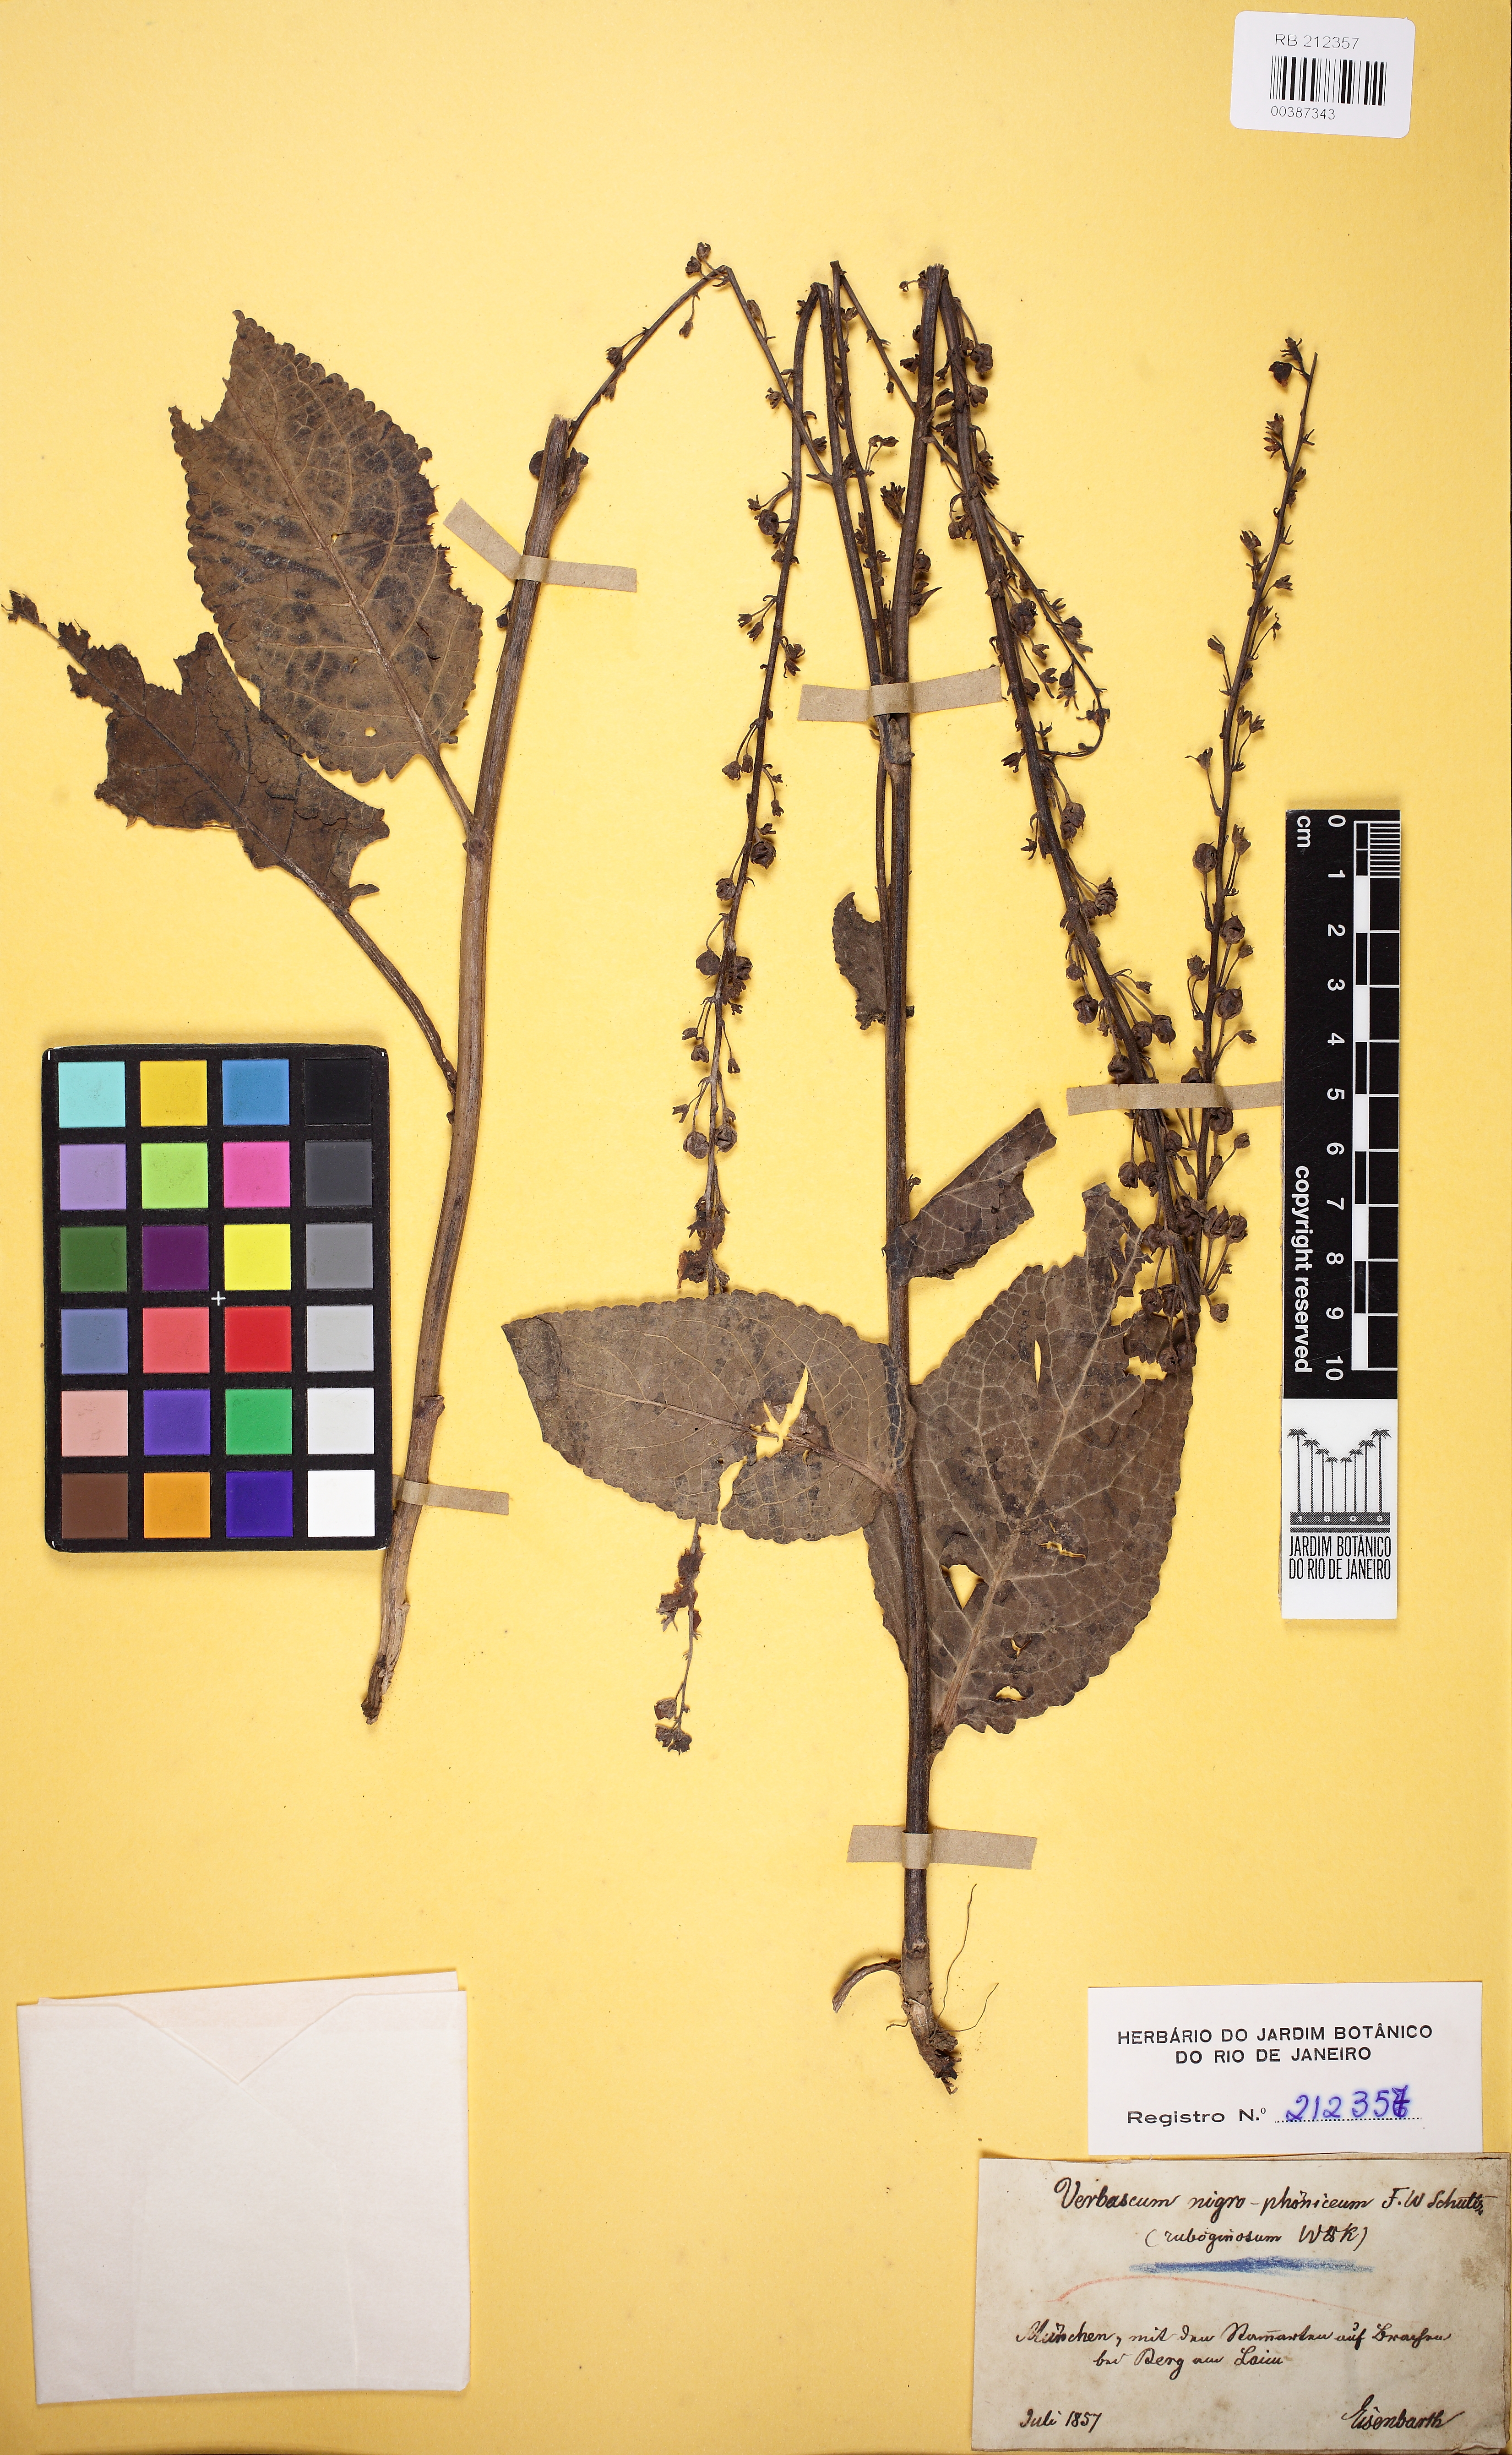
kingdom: Plantae
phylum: Tracheophyta
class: Magnoliopsida
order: Lamiales
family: Scrophulariaceae
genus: Verbascum
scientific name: Verbascum nigrum
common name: Dark mullein
